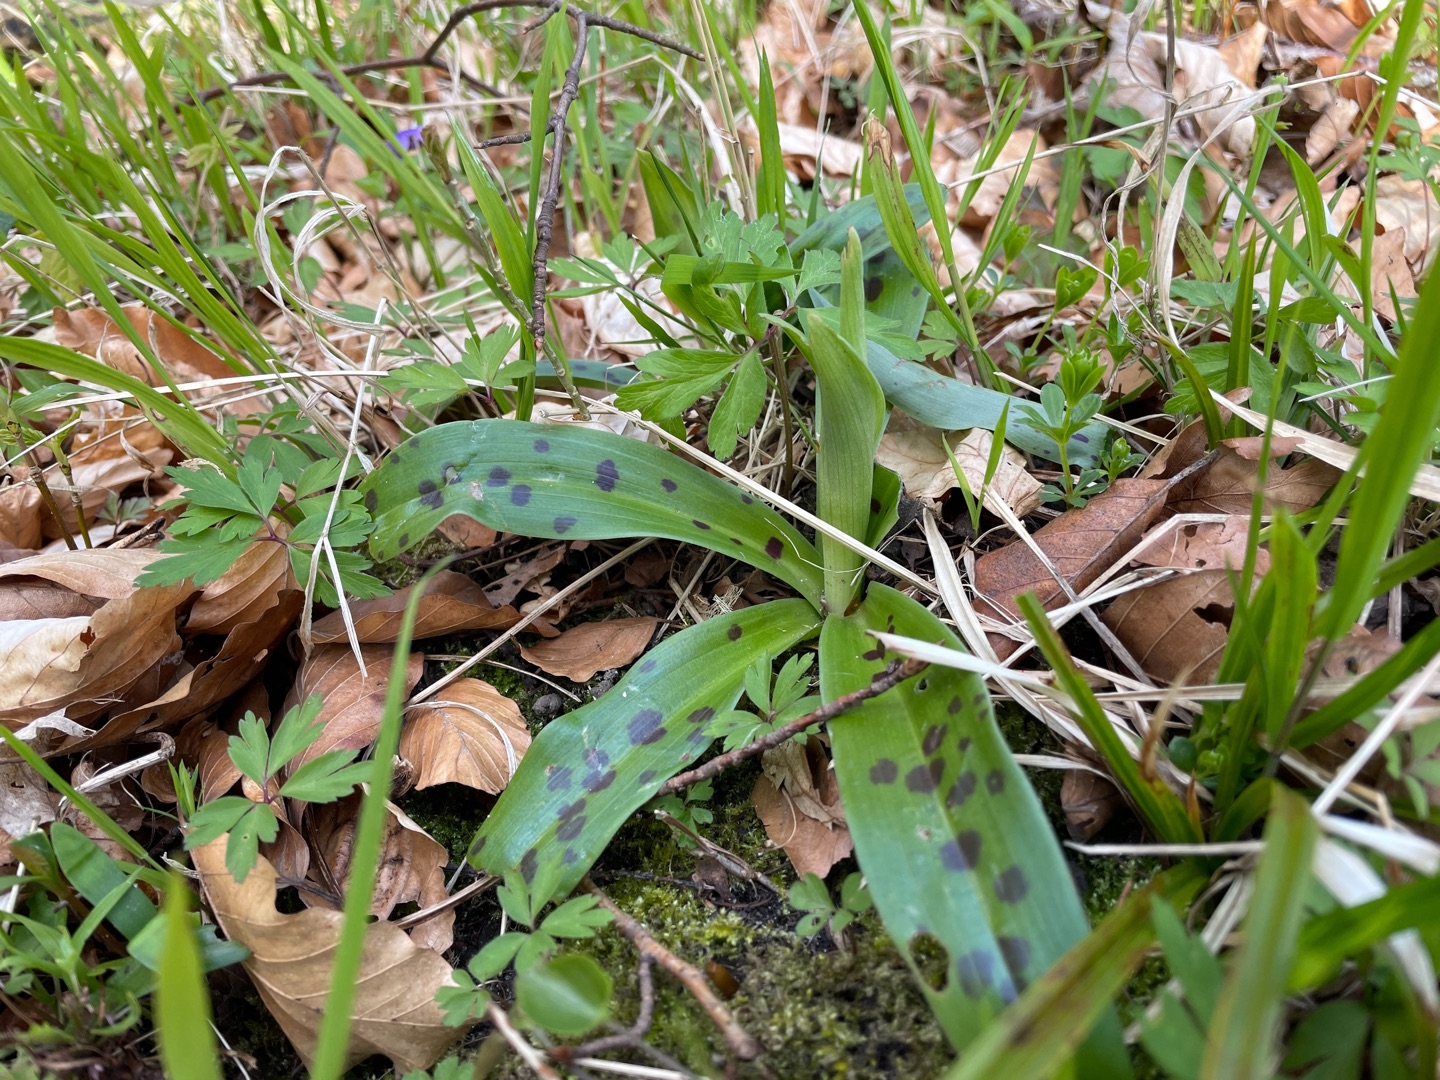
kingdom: Plantae
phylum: Tracheophyta
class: Liliopsida
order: Asparagales
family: Orchidaceae
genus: Orchis
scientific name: Orchis mascula
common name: Tyndakset gøgeurt
